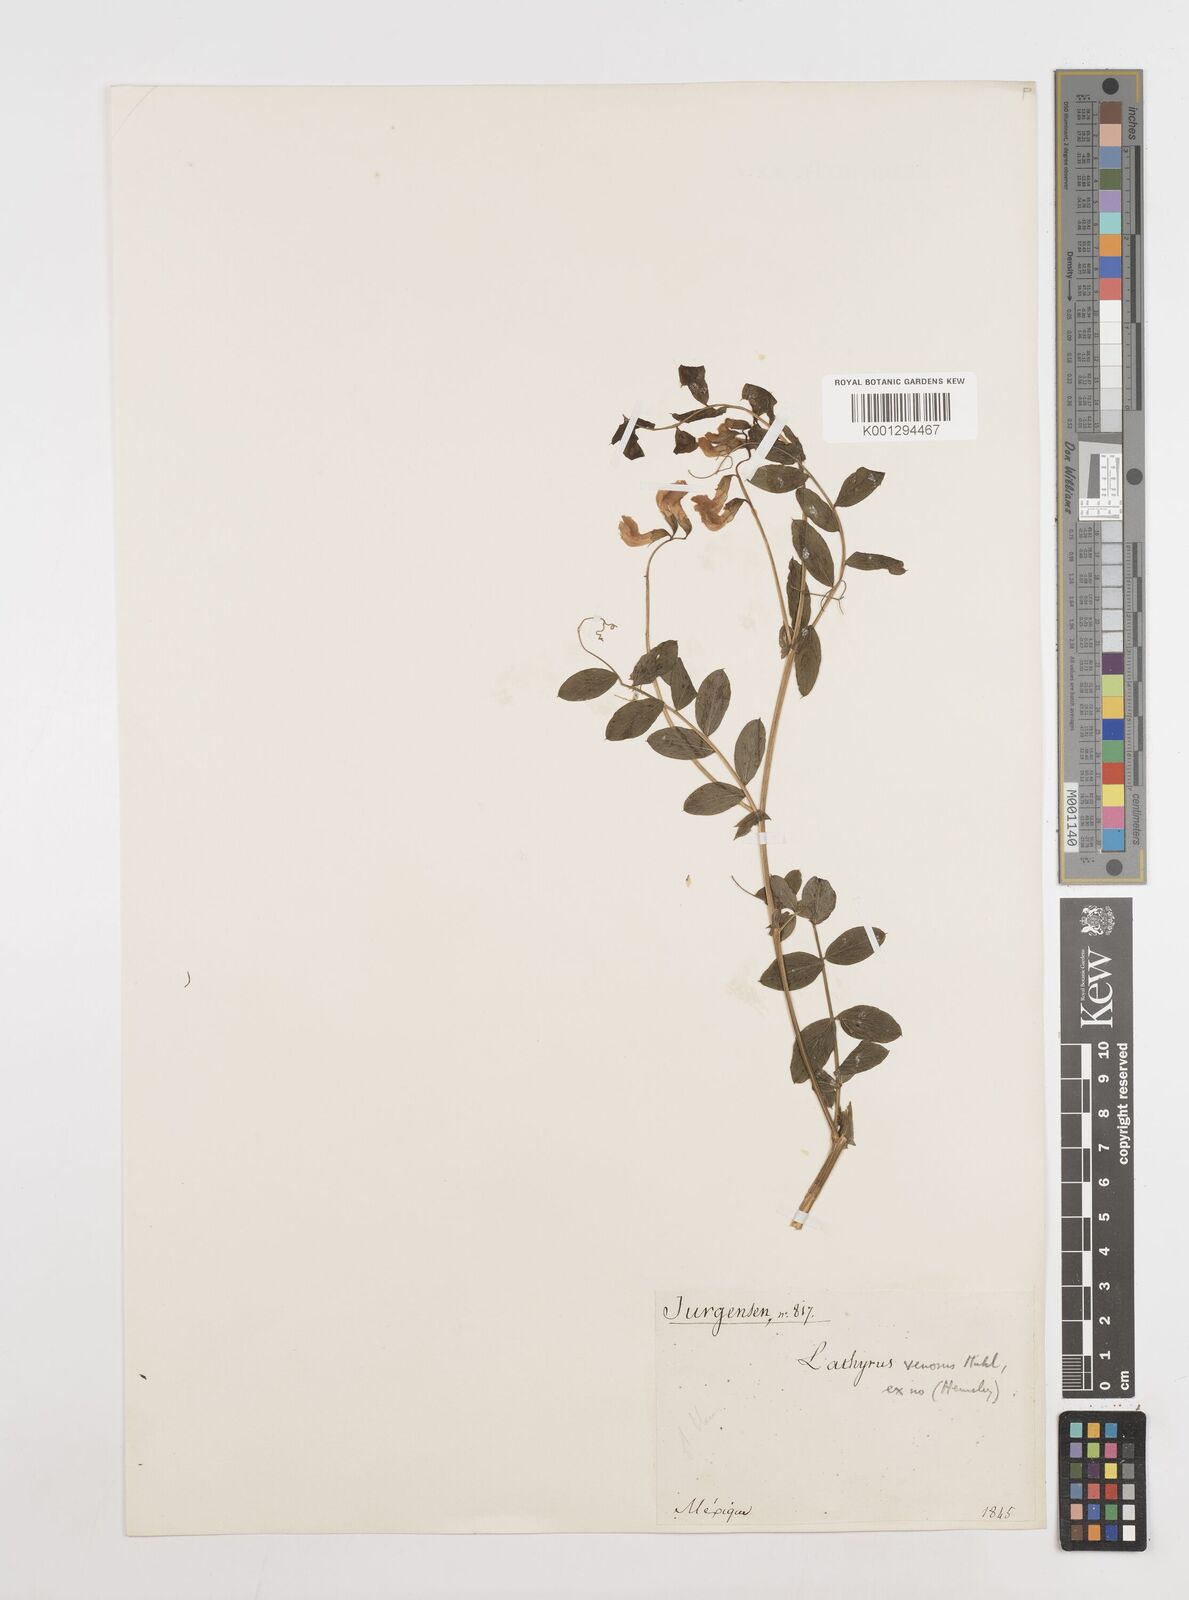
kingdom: Plantae
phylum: Tracheophyta
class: Magnoliopsida
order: Fabales
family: Fabaceae
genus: Lathyrus
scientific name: Lathyrus japonicus
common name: Sea pea
